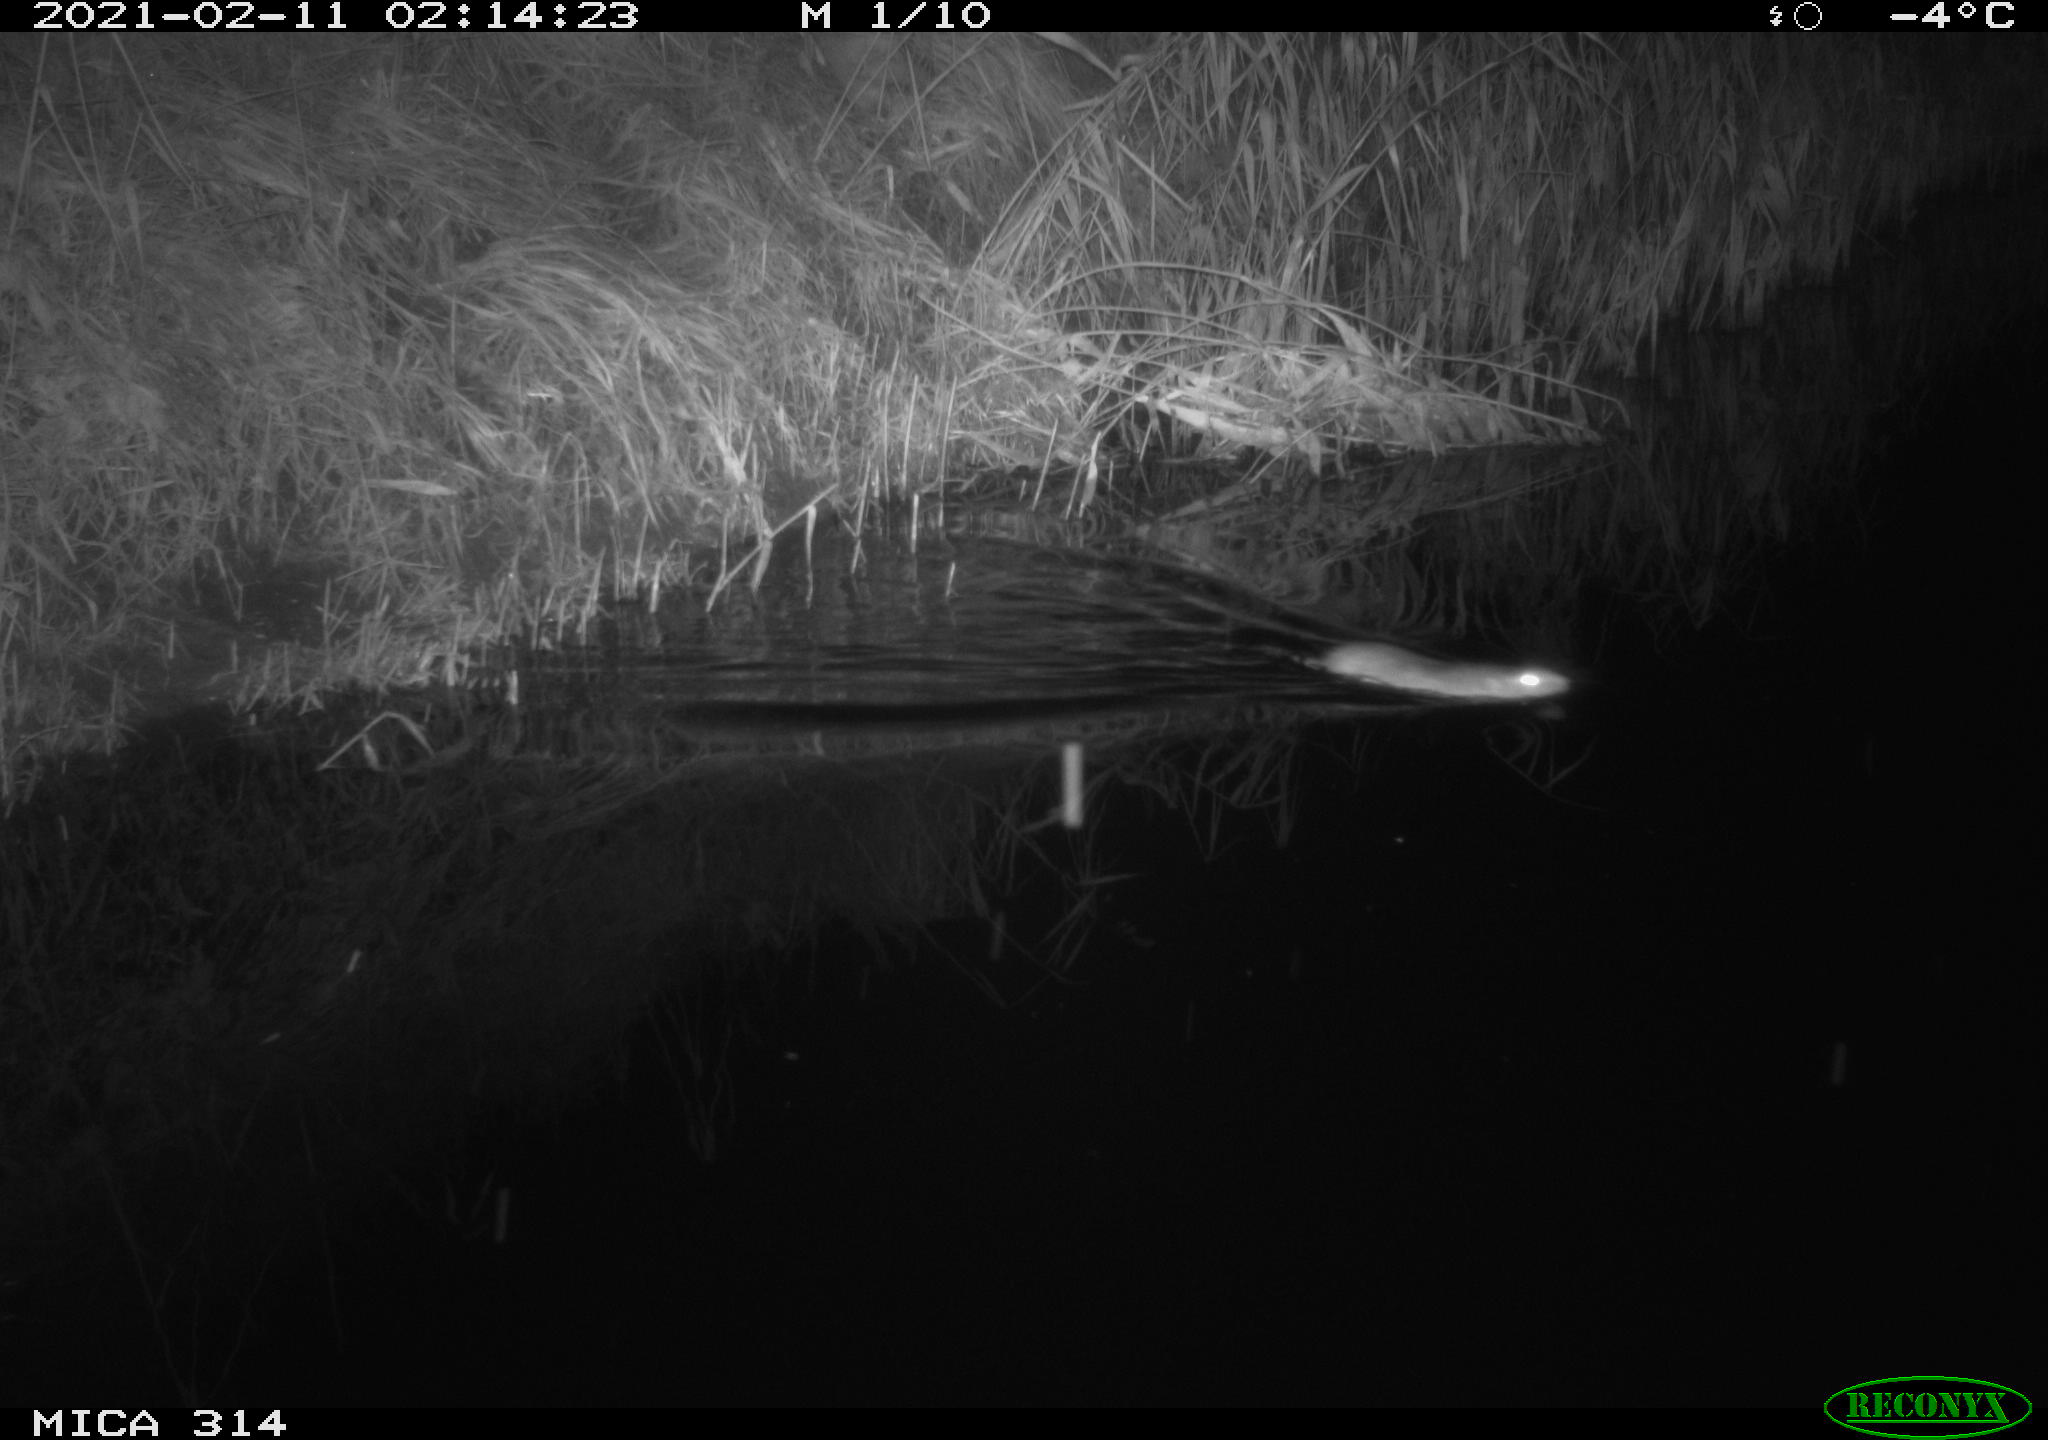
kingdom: Animalia
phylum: Chordata
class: Mammalia
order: Rodentia
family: Muridae
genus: Rattus
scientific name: Rattus norvegicus
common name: Brown rat
